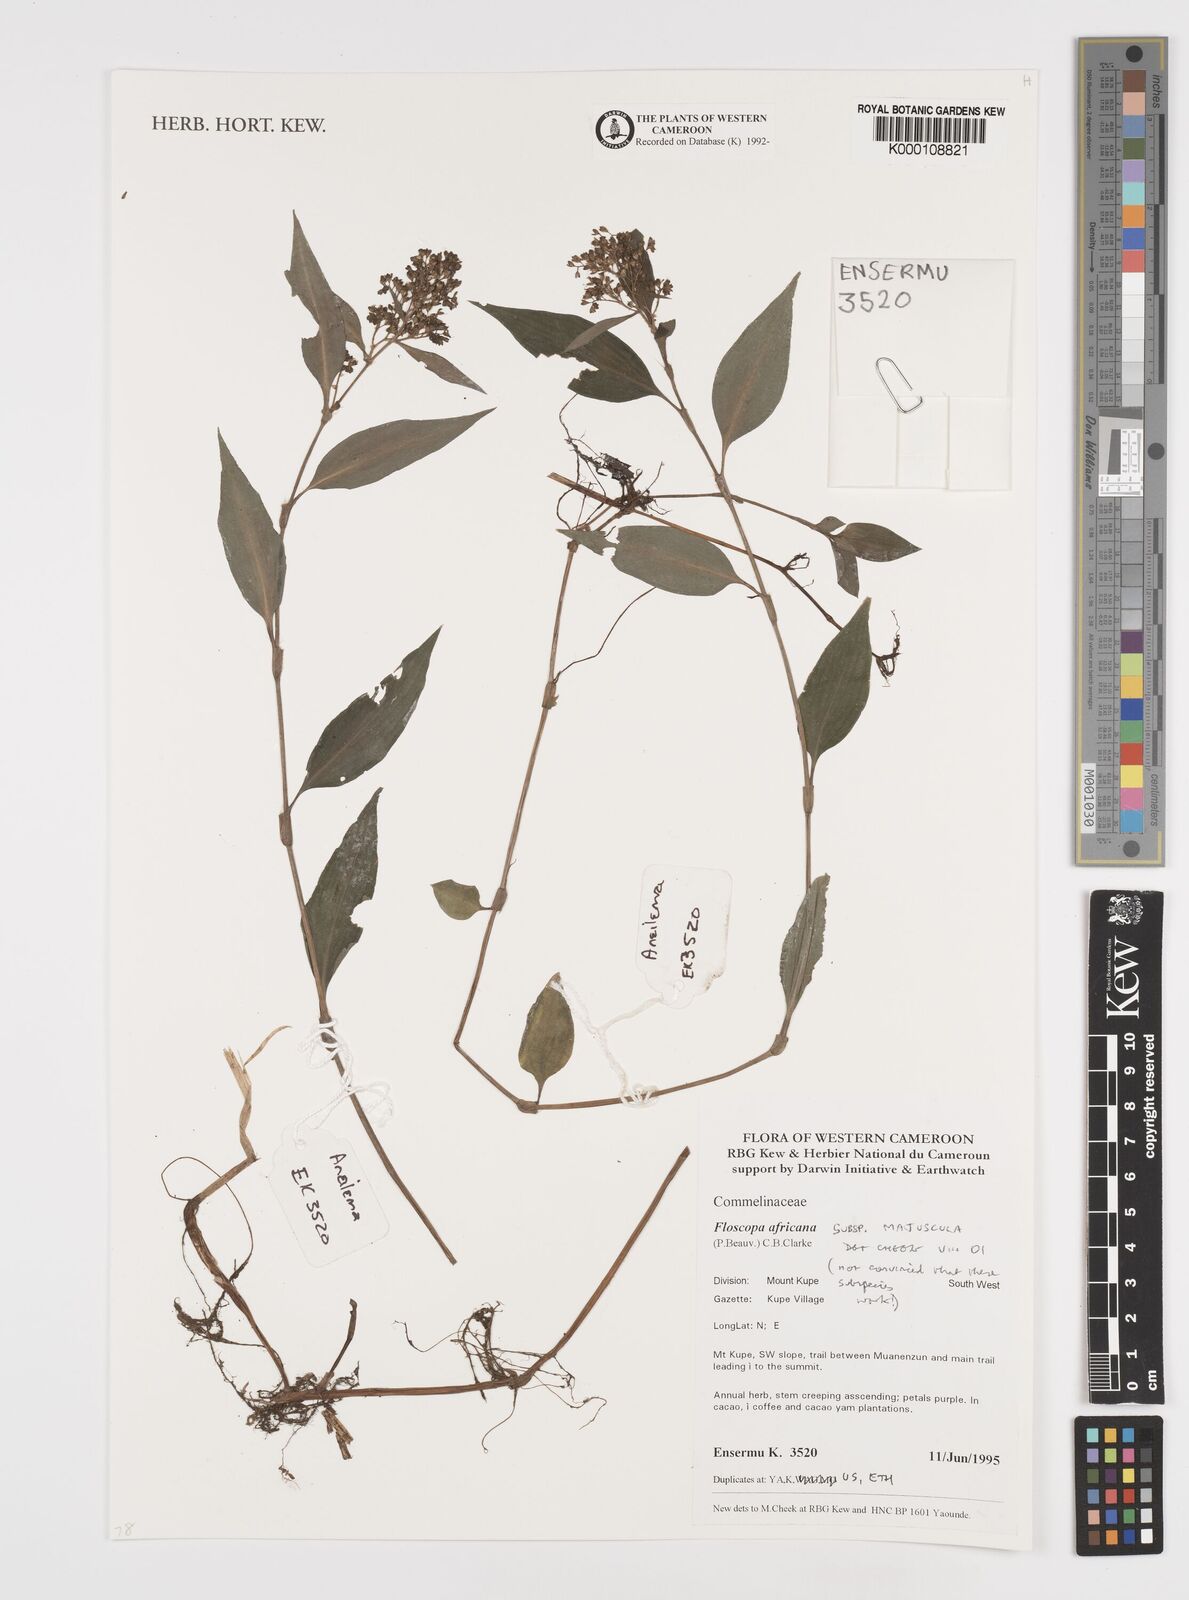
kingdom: Plantae
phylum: Tracheophyta
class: Liliopsida
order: Commelinales
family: Commelinaceae
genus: Floscopa
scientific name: Floscopa africana
